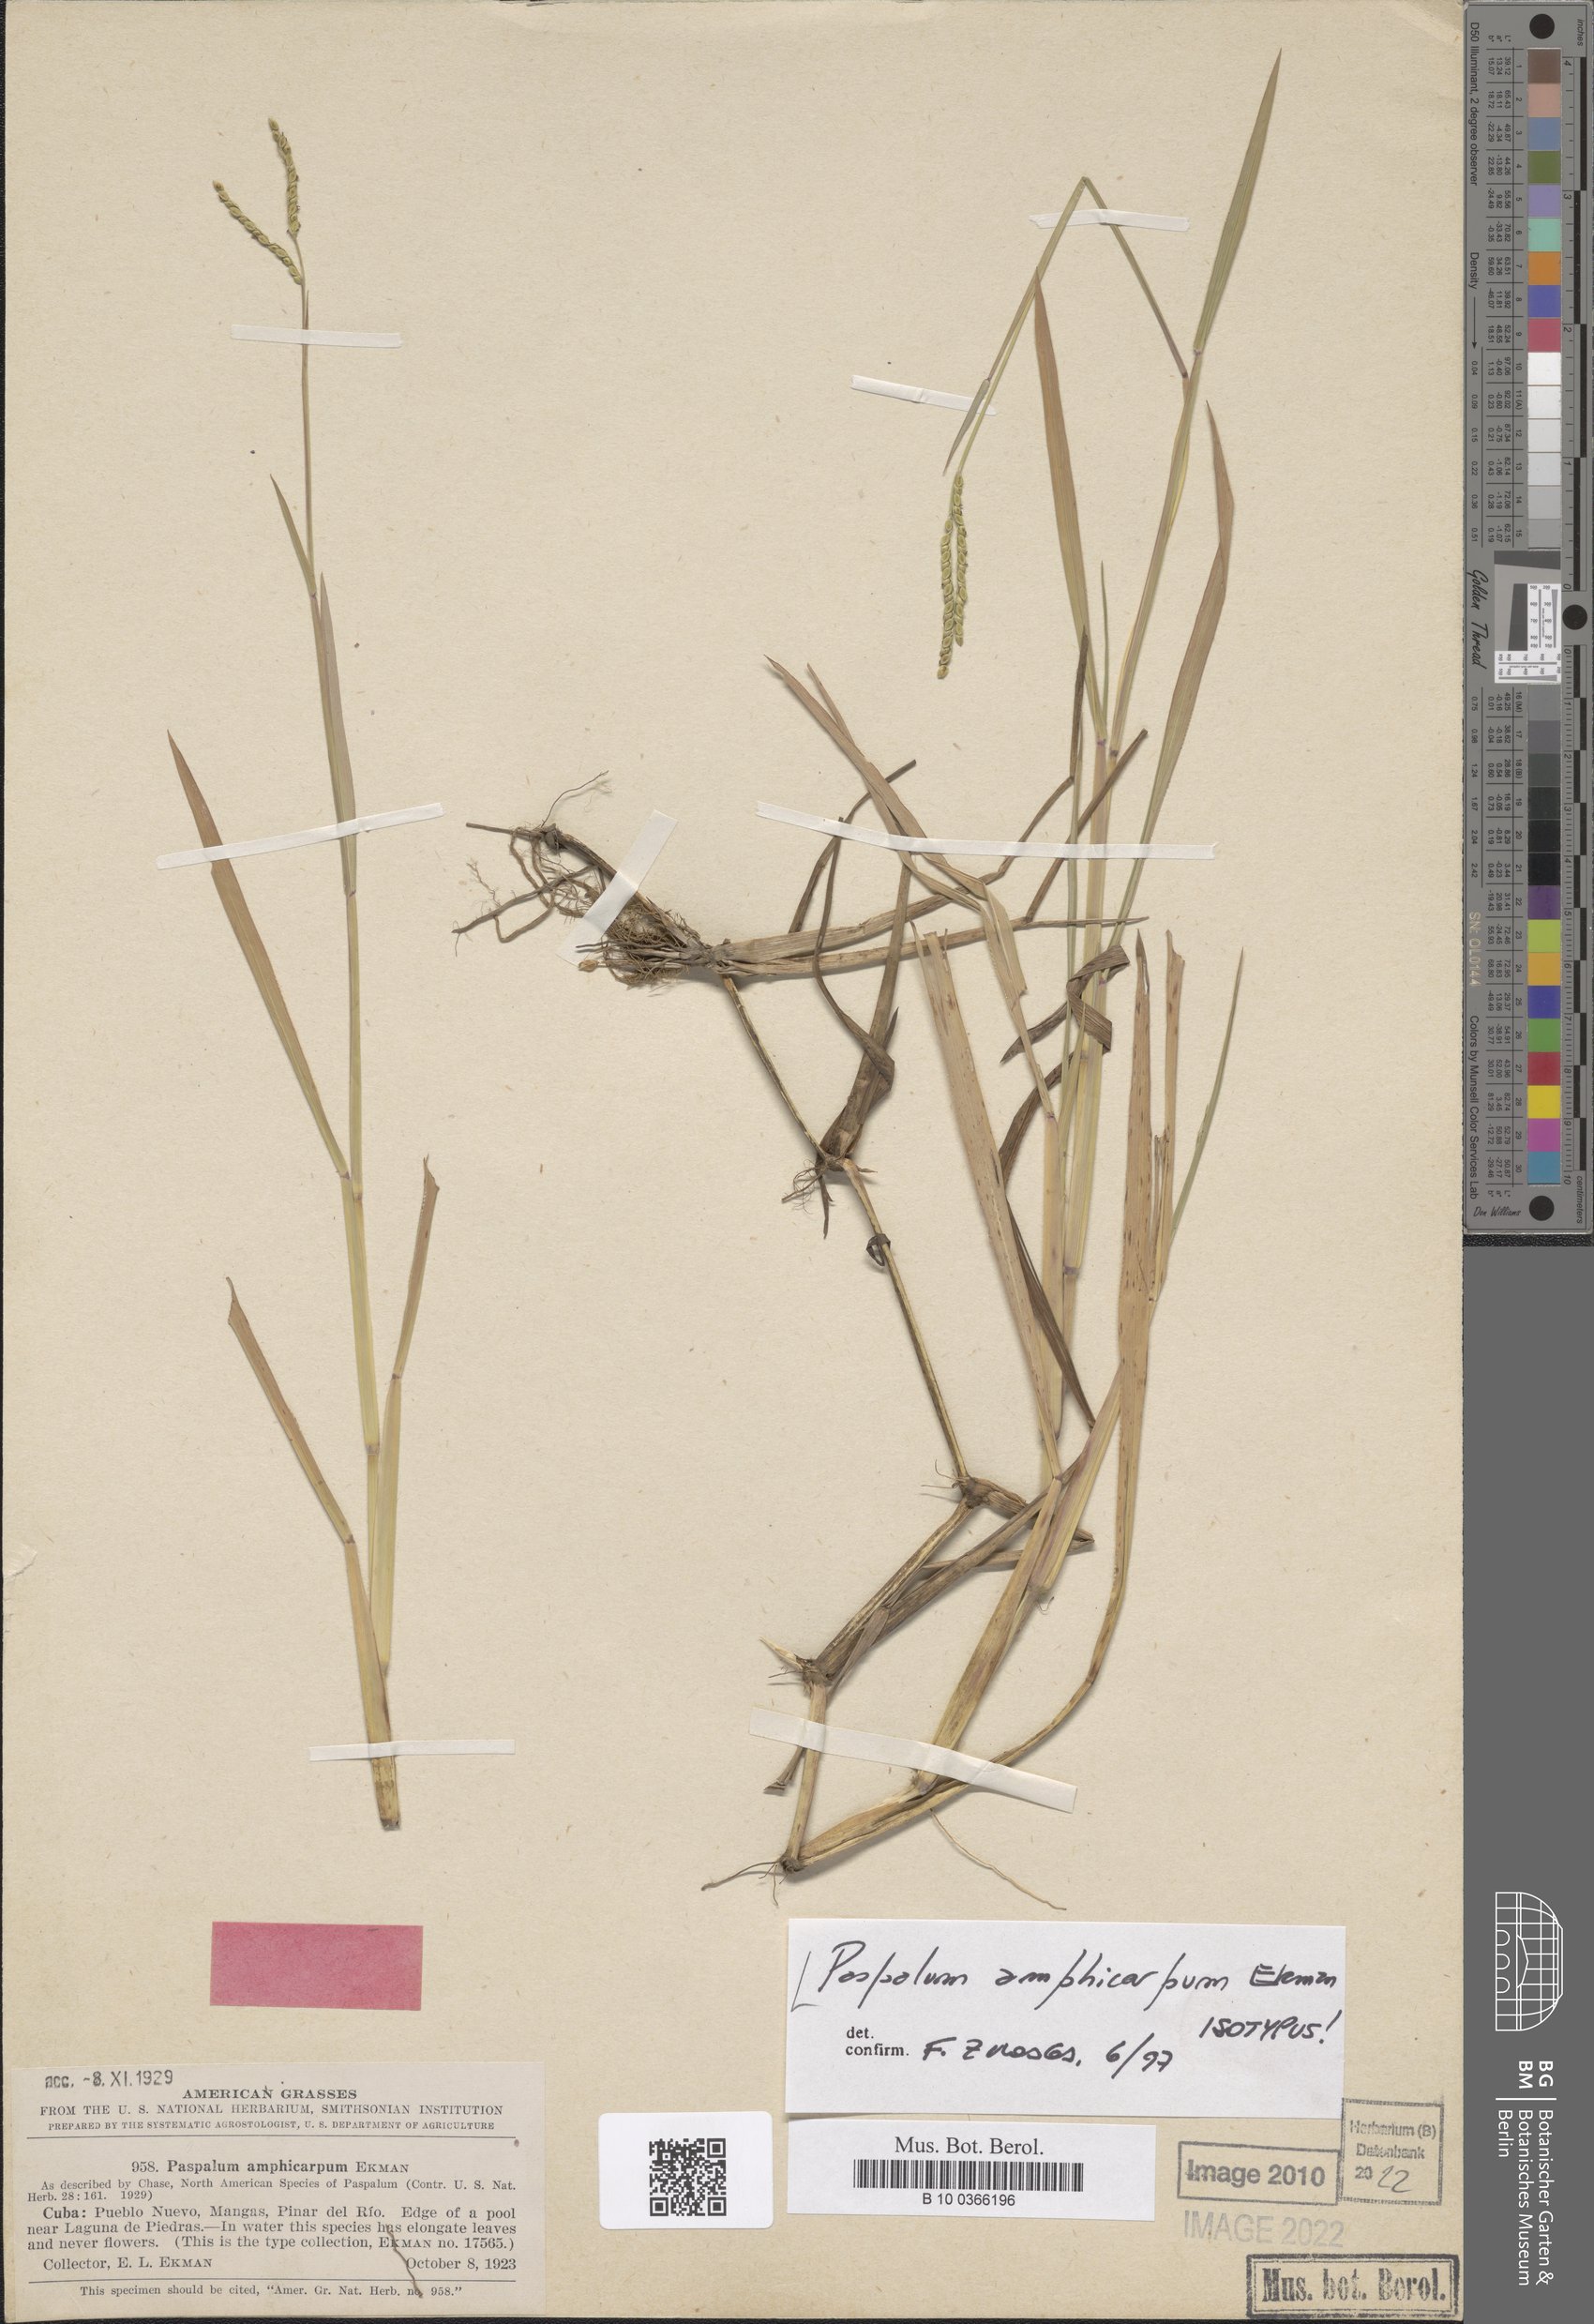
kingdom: Plantae
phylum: Tracheophyta
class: Liliopsida
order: Poales
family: Poaceae
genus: Paspalum
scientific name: Paspalum amphicarpum
